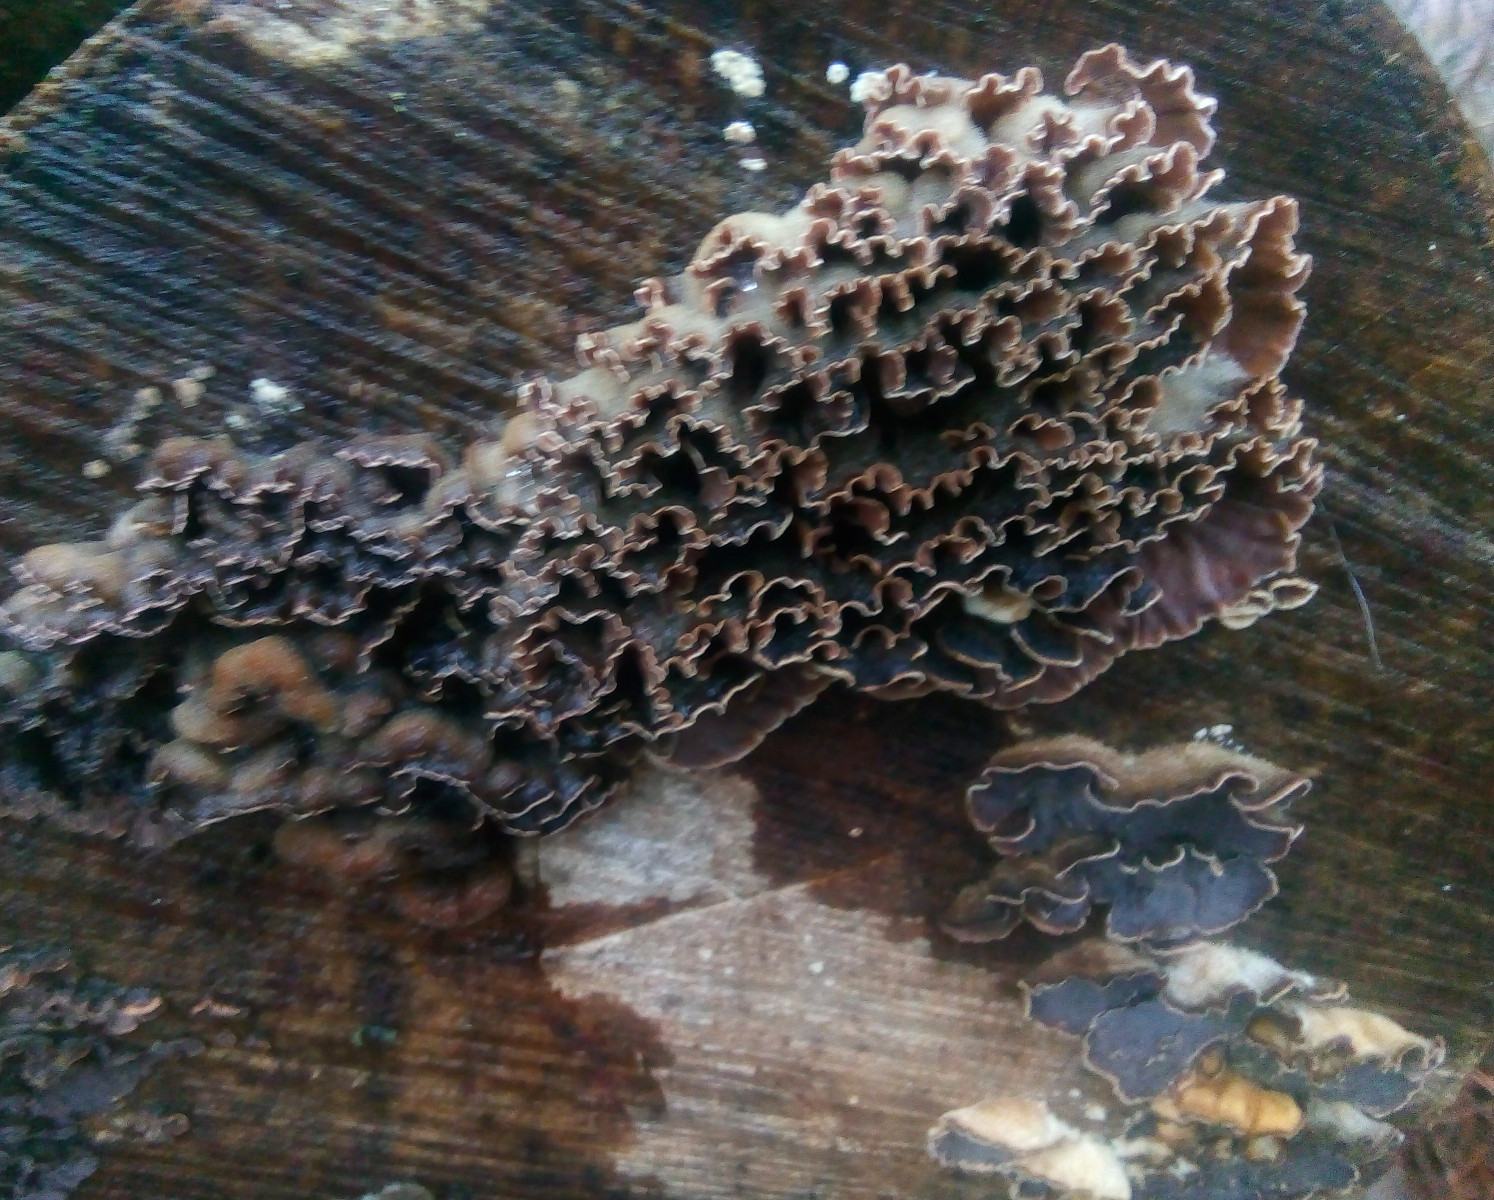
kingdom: Fungi
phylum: Basidiomycota
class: Agaricomycetes
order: Agaricales
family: Cyphellaceae
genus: Chondrostereum
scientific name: Chondrostereum purpureum
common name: purpurlædersvamp
